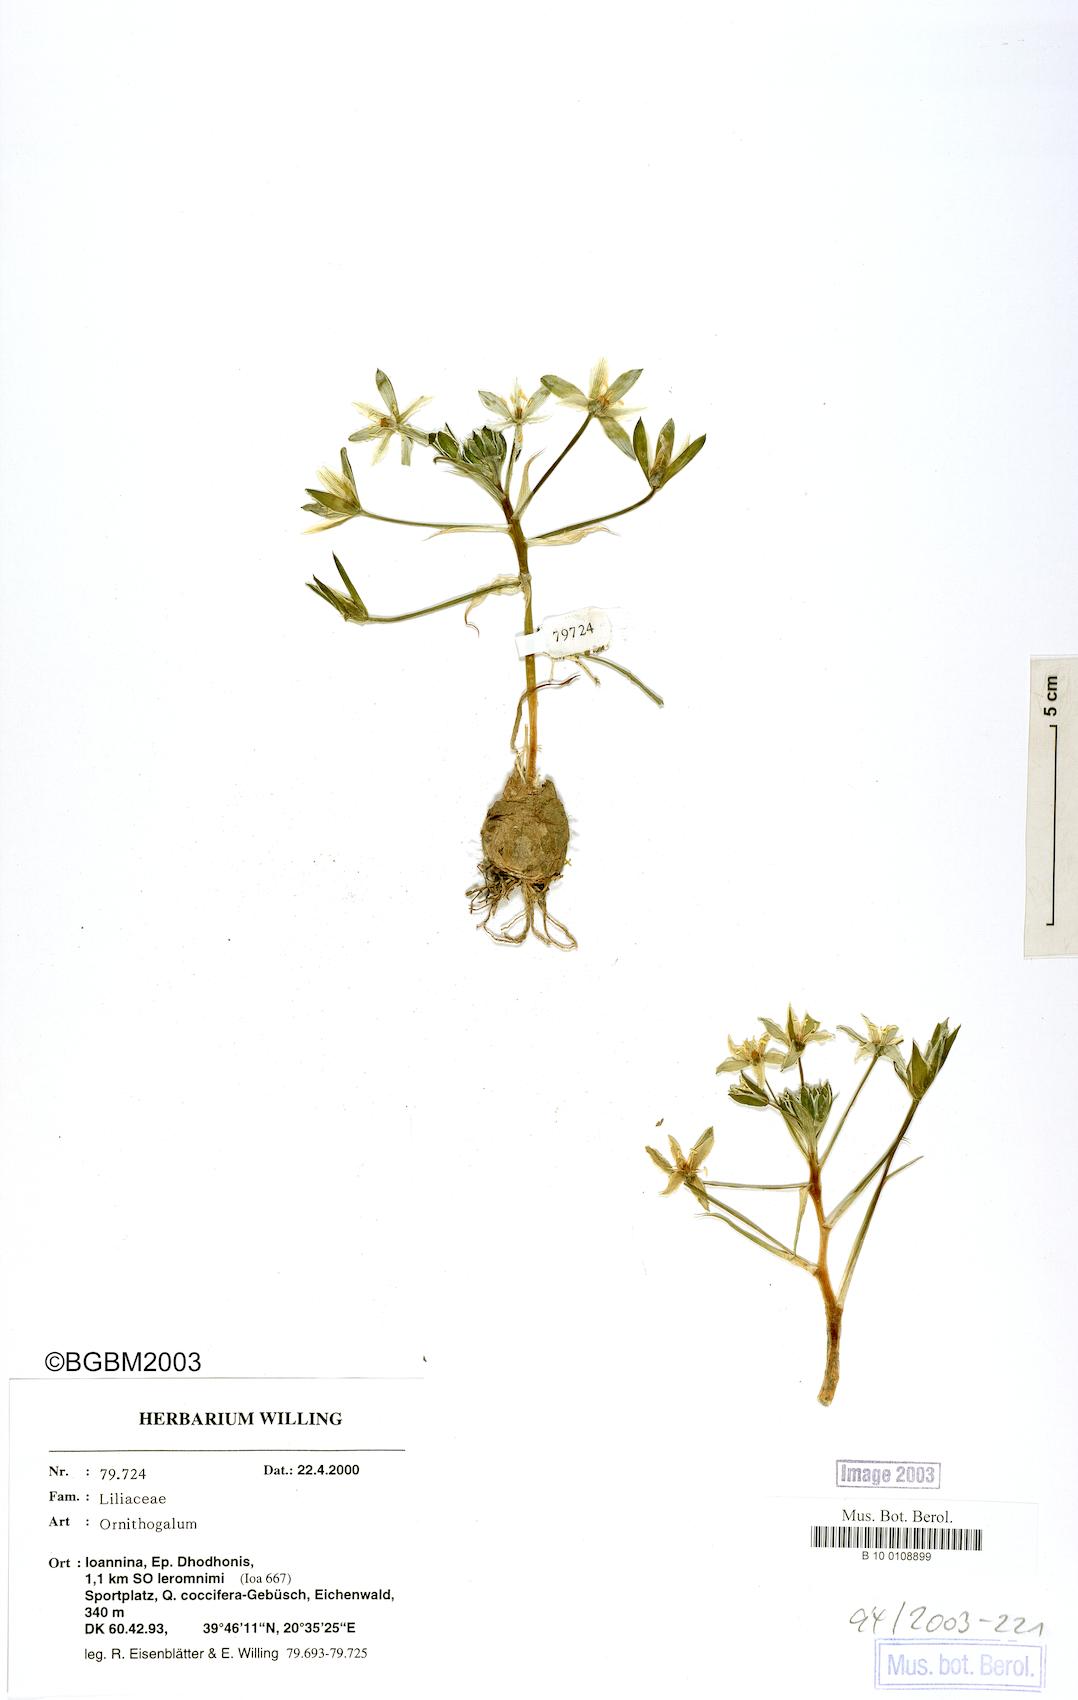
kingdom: Plantae
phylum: Tracheophyta
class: Liliopsida
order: Asparagales
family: Asparagaceae
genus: Ornithogalum
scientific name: Ornithogalum
